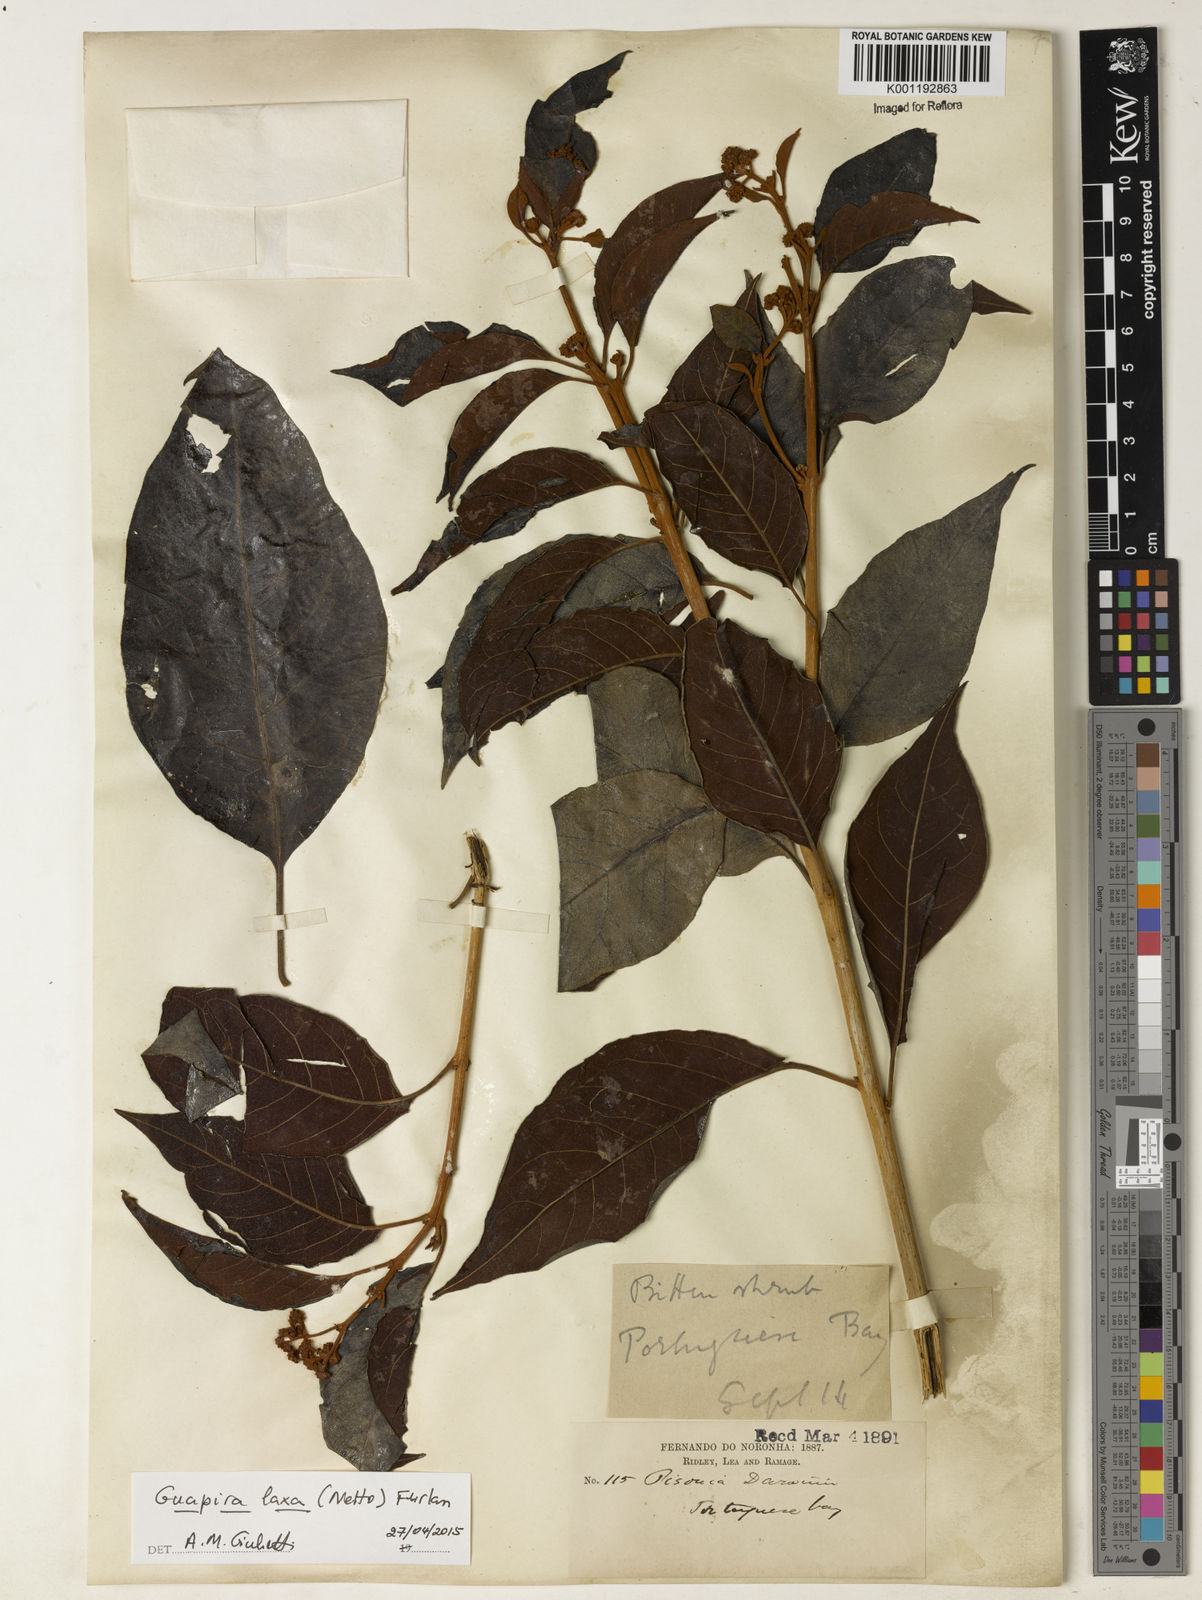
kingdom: Plantae
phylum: Tracheophyta
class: Magnoliopsida
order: Caryophyllales
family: Nyctaginaceae
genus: Guapira
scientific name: Guapira laxa
